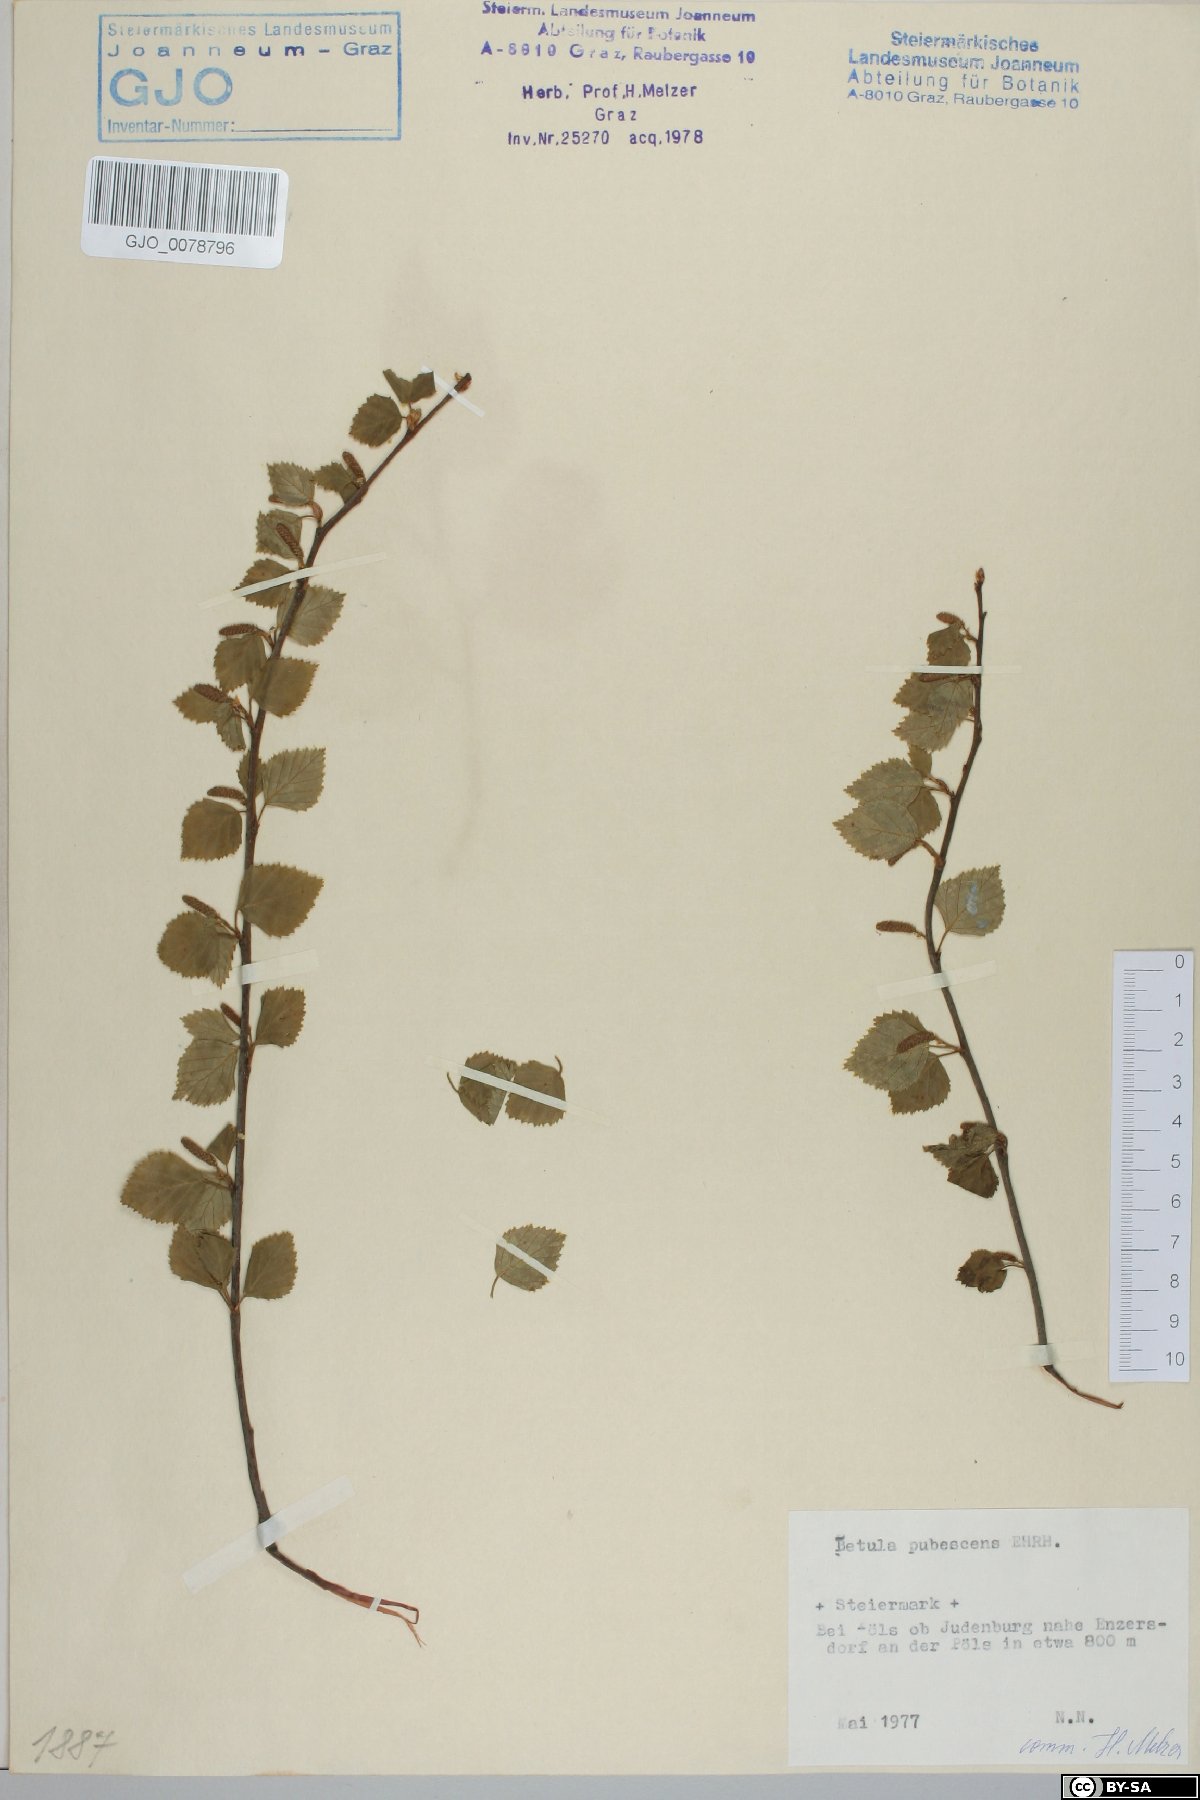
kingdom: Plantae
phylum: Tracheophyta
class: Magnoliopsida
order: Fagales
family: Betulaceae
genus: Betula
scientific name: Betula pubescens
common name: Downy birch
